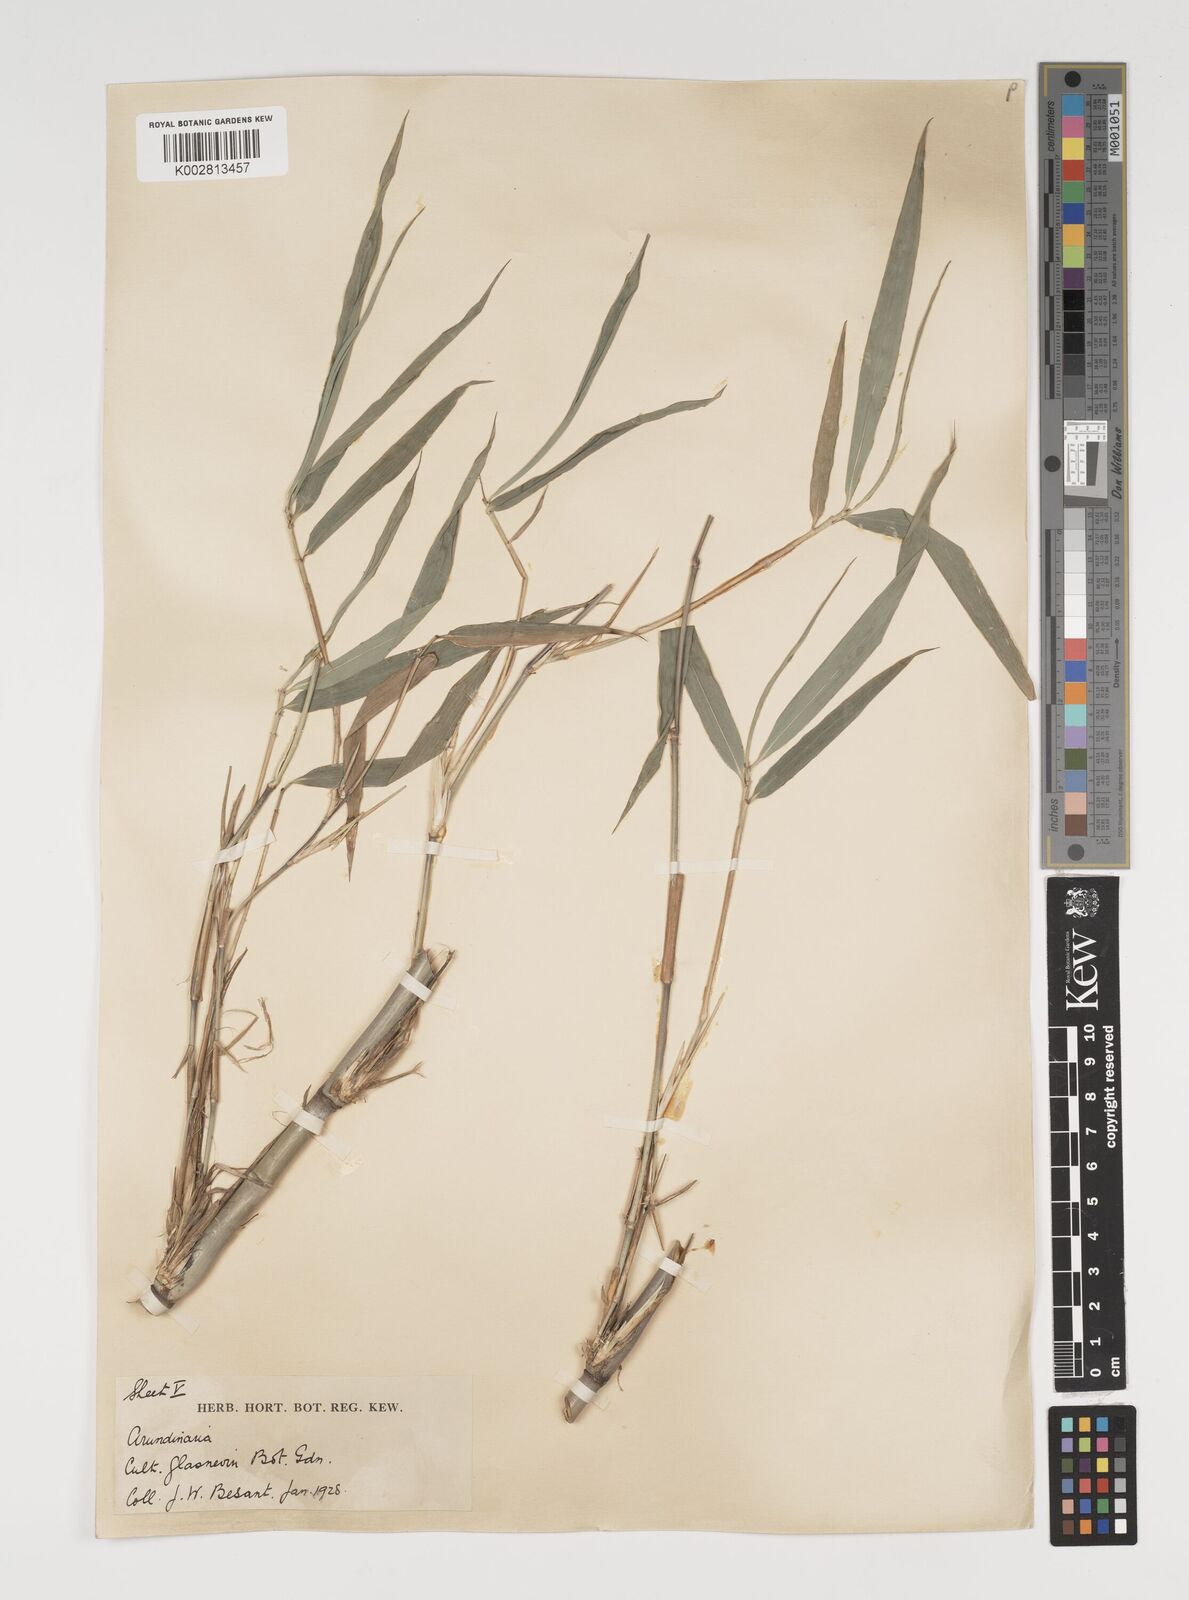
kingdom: Plantae
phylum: Tracheophyta
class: Liliopsida
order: Poales
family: Poaceae
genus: Thamnocalamus
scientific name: Thamnocalamus spathiflorus
